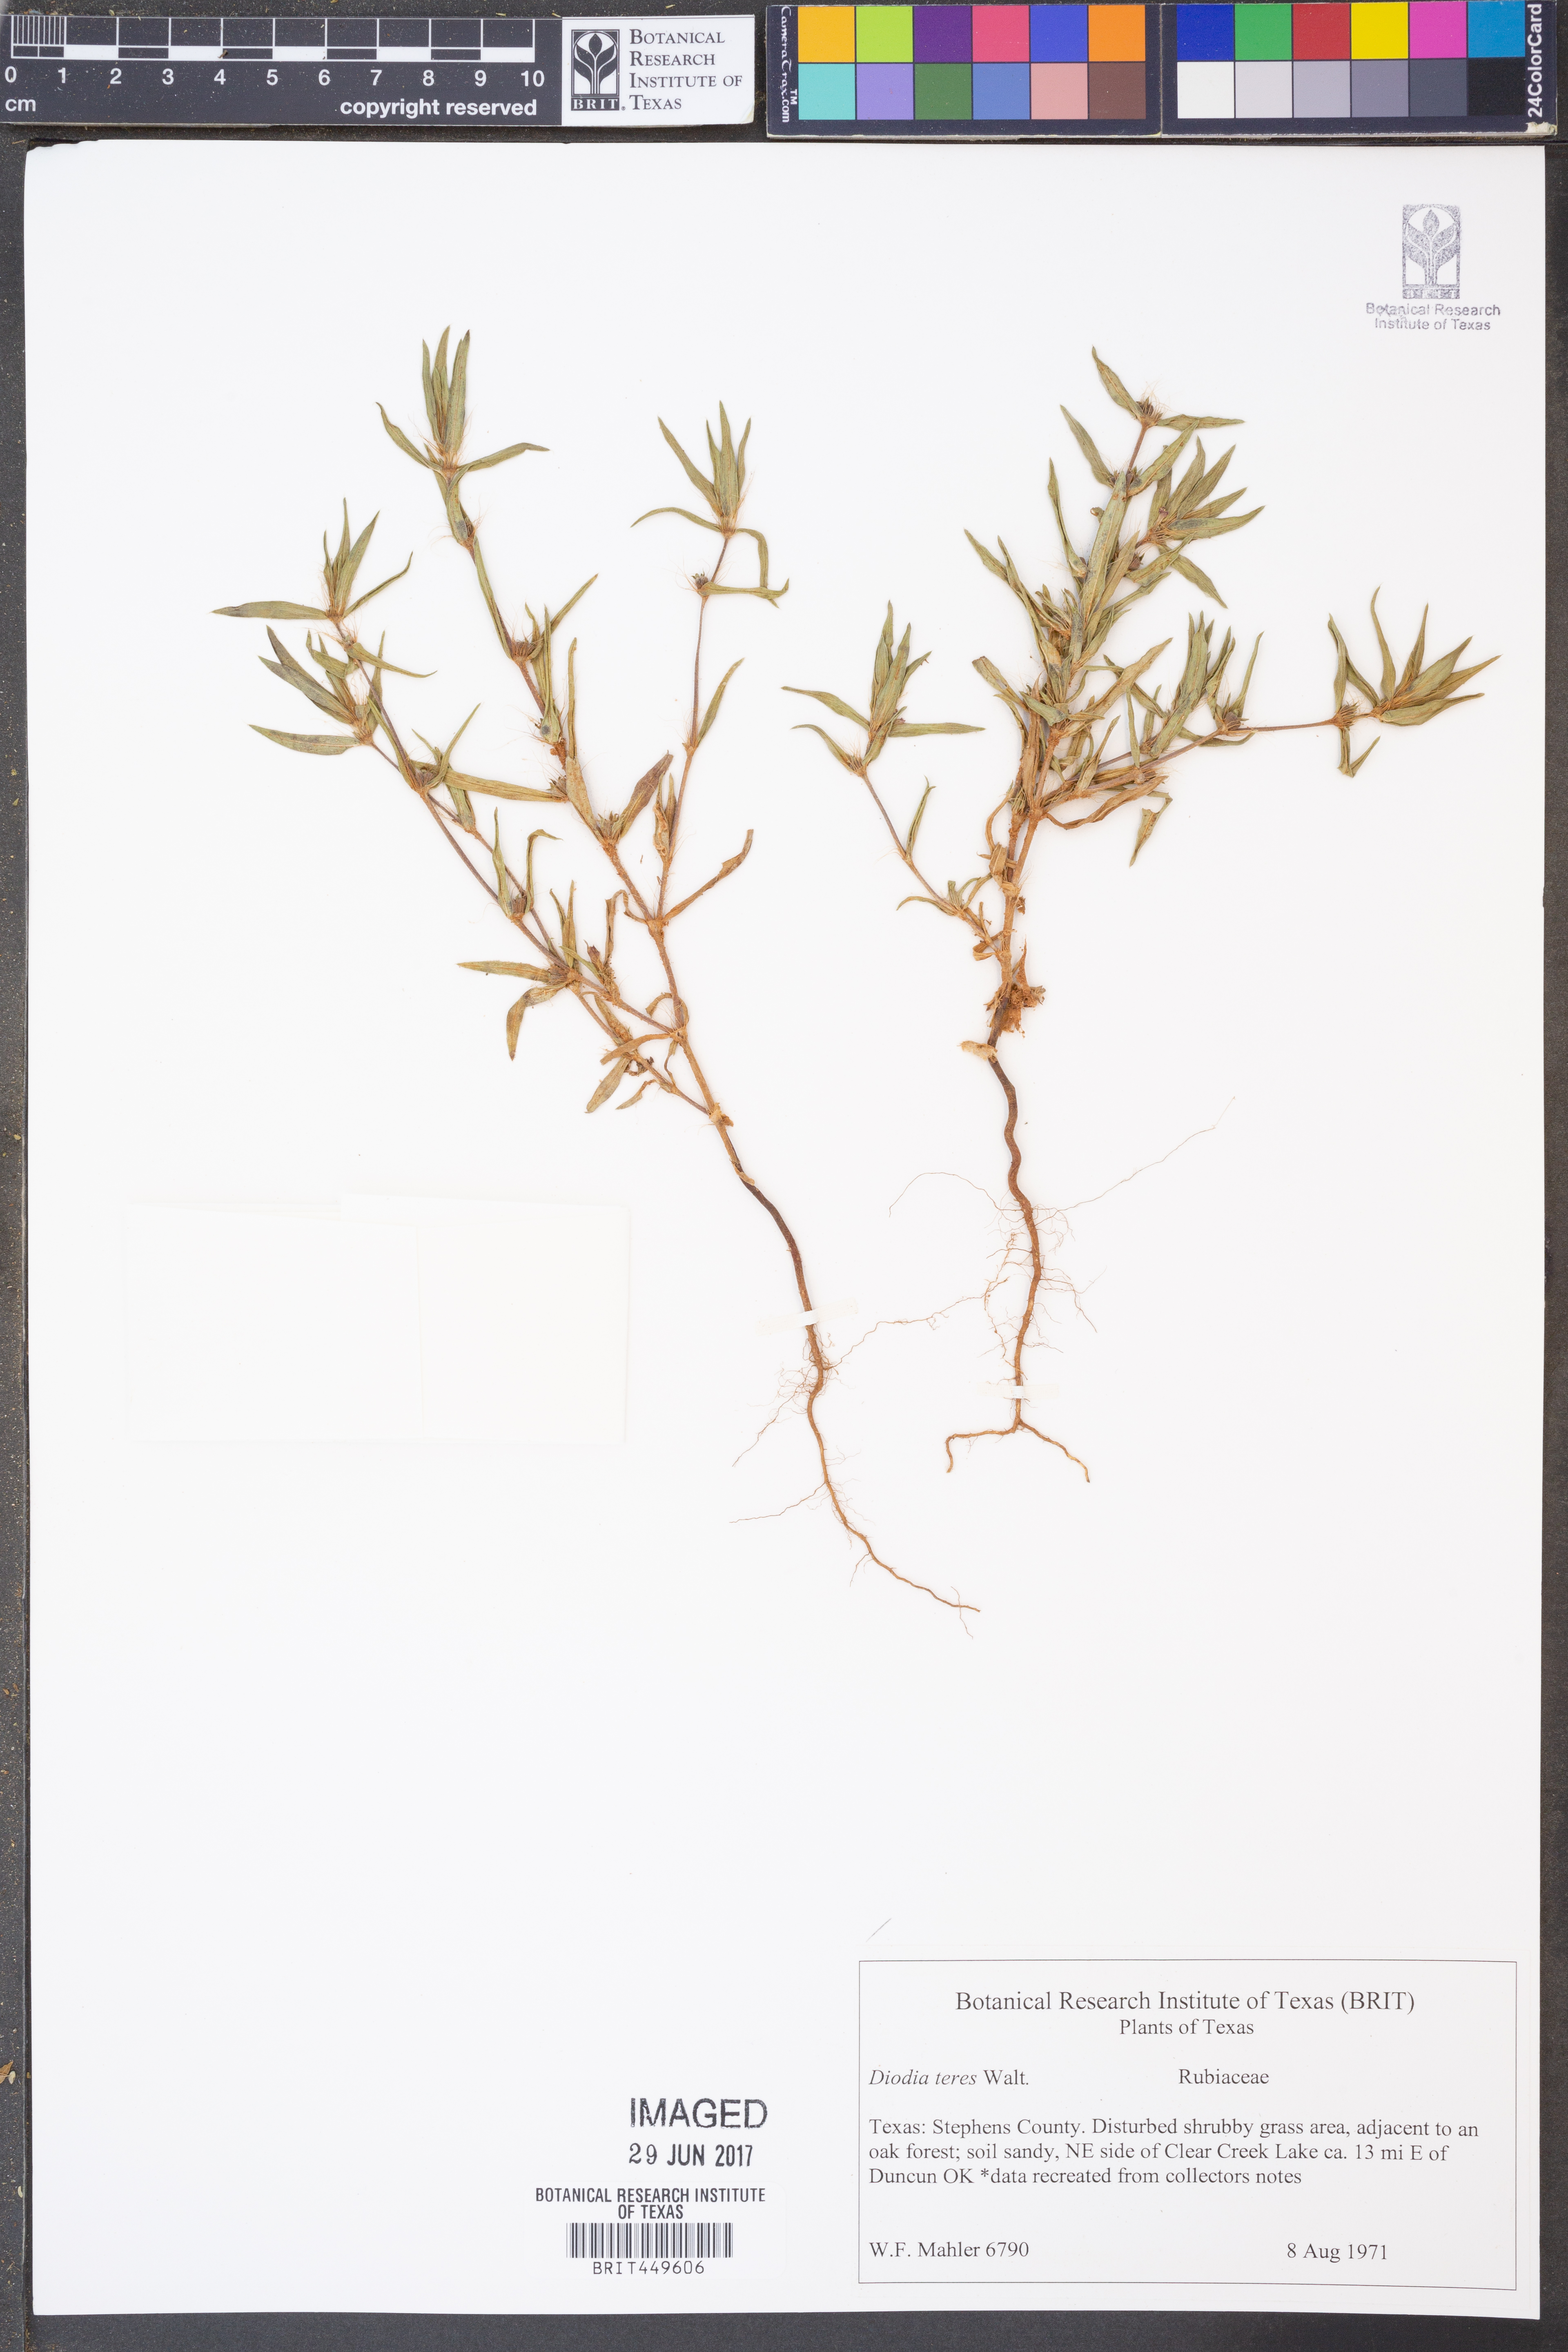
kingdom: Plantae
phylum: Tracheophyta
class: Magnoliopsida
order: Gentianales
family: Rubiaceae
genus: Hexasepalum
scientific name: Hexasepalum teres
